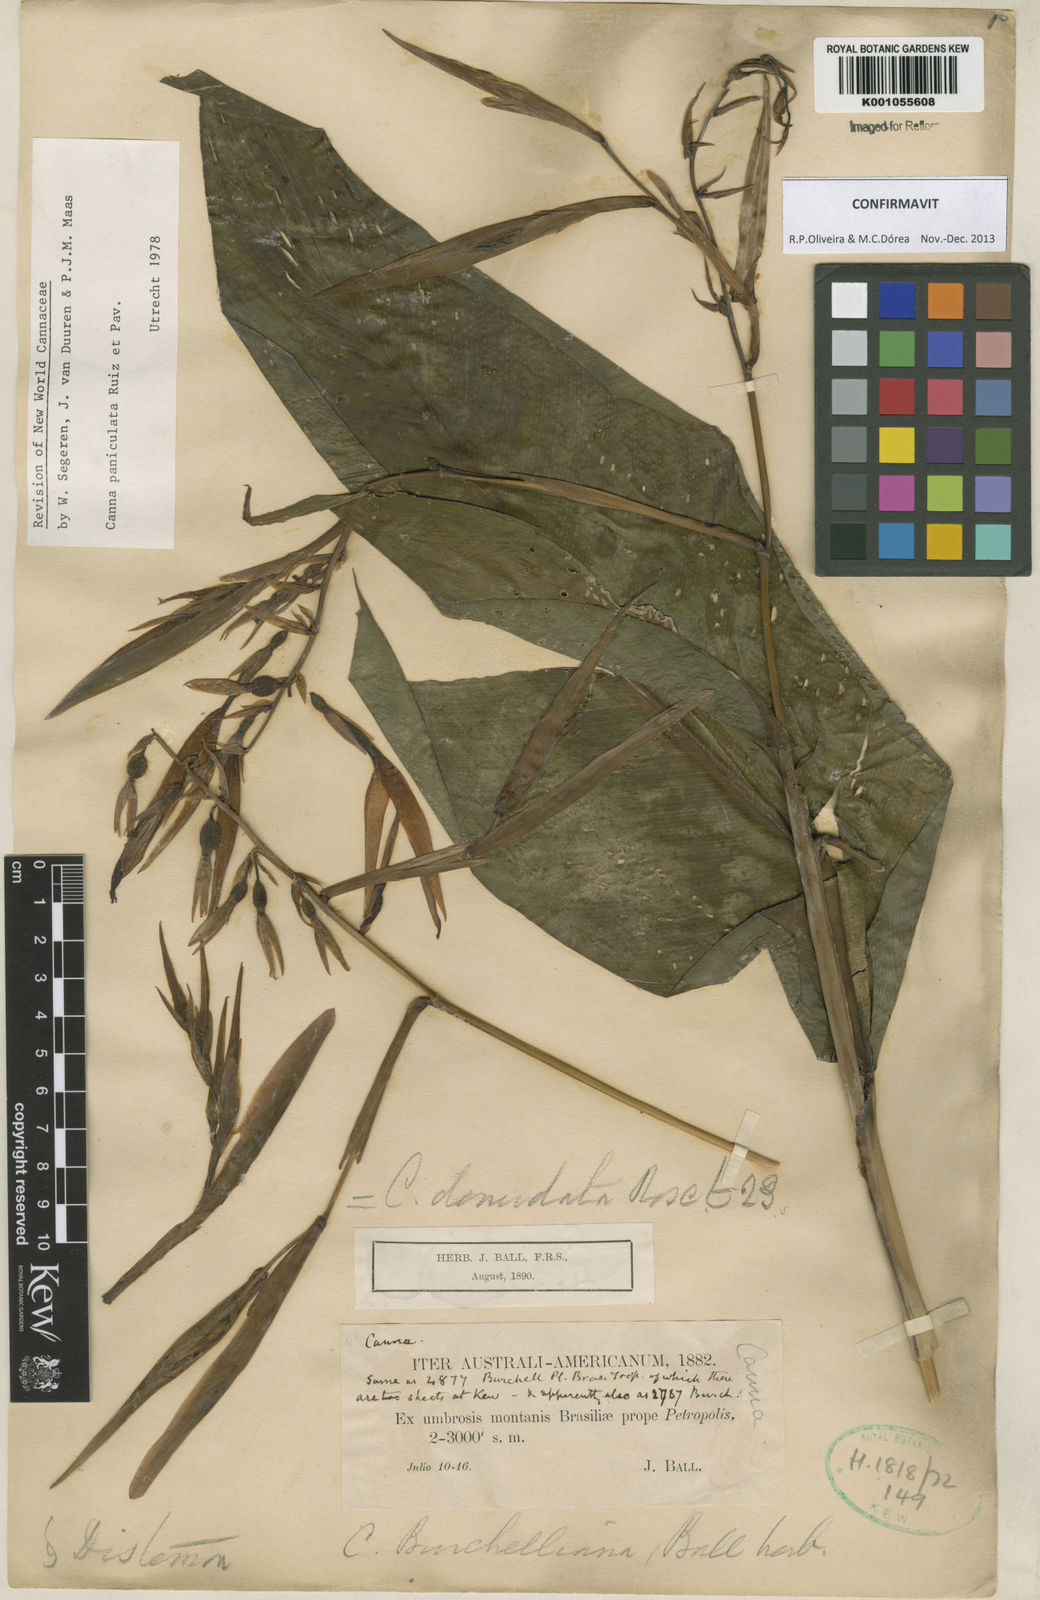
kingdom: Plantae
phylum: Tracheophyta
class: Liliopsida
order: Zingiberales
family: Cannaceae
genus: Canna
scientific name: Canna paniculata
